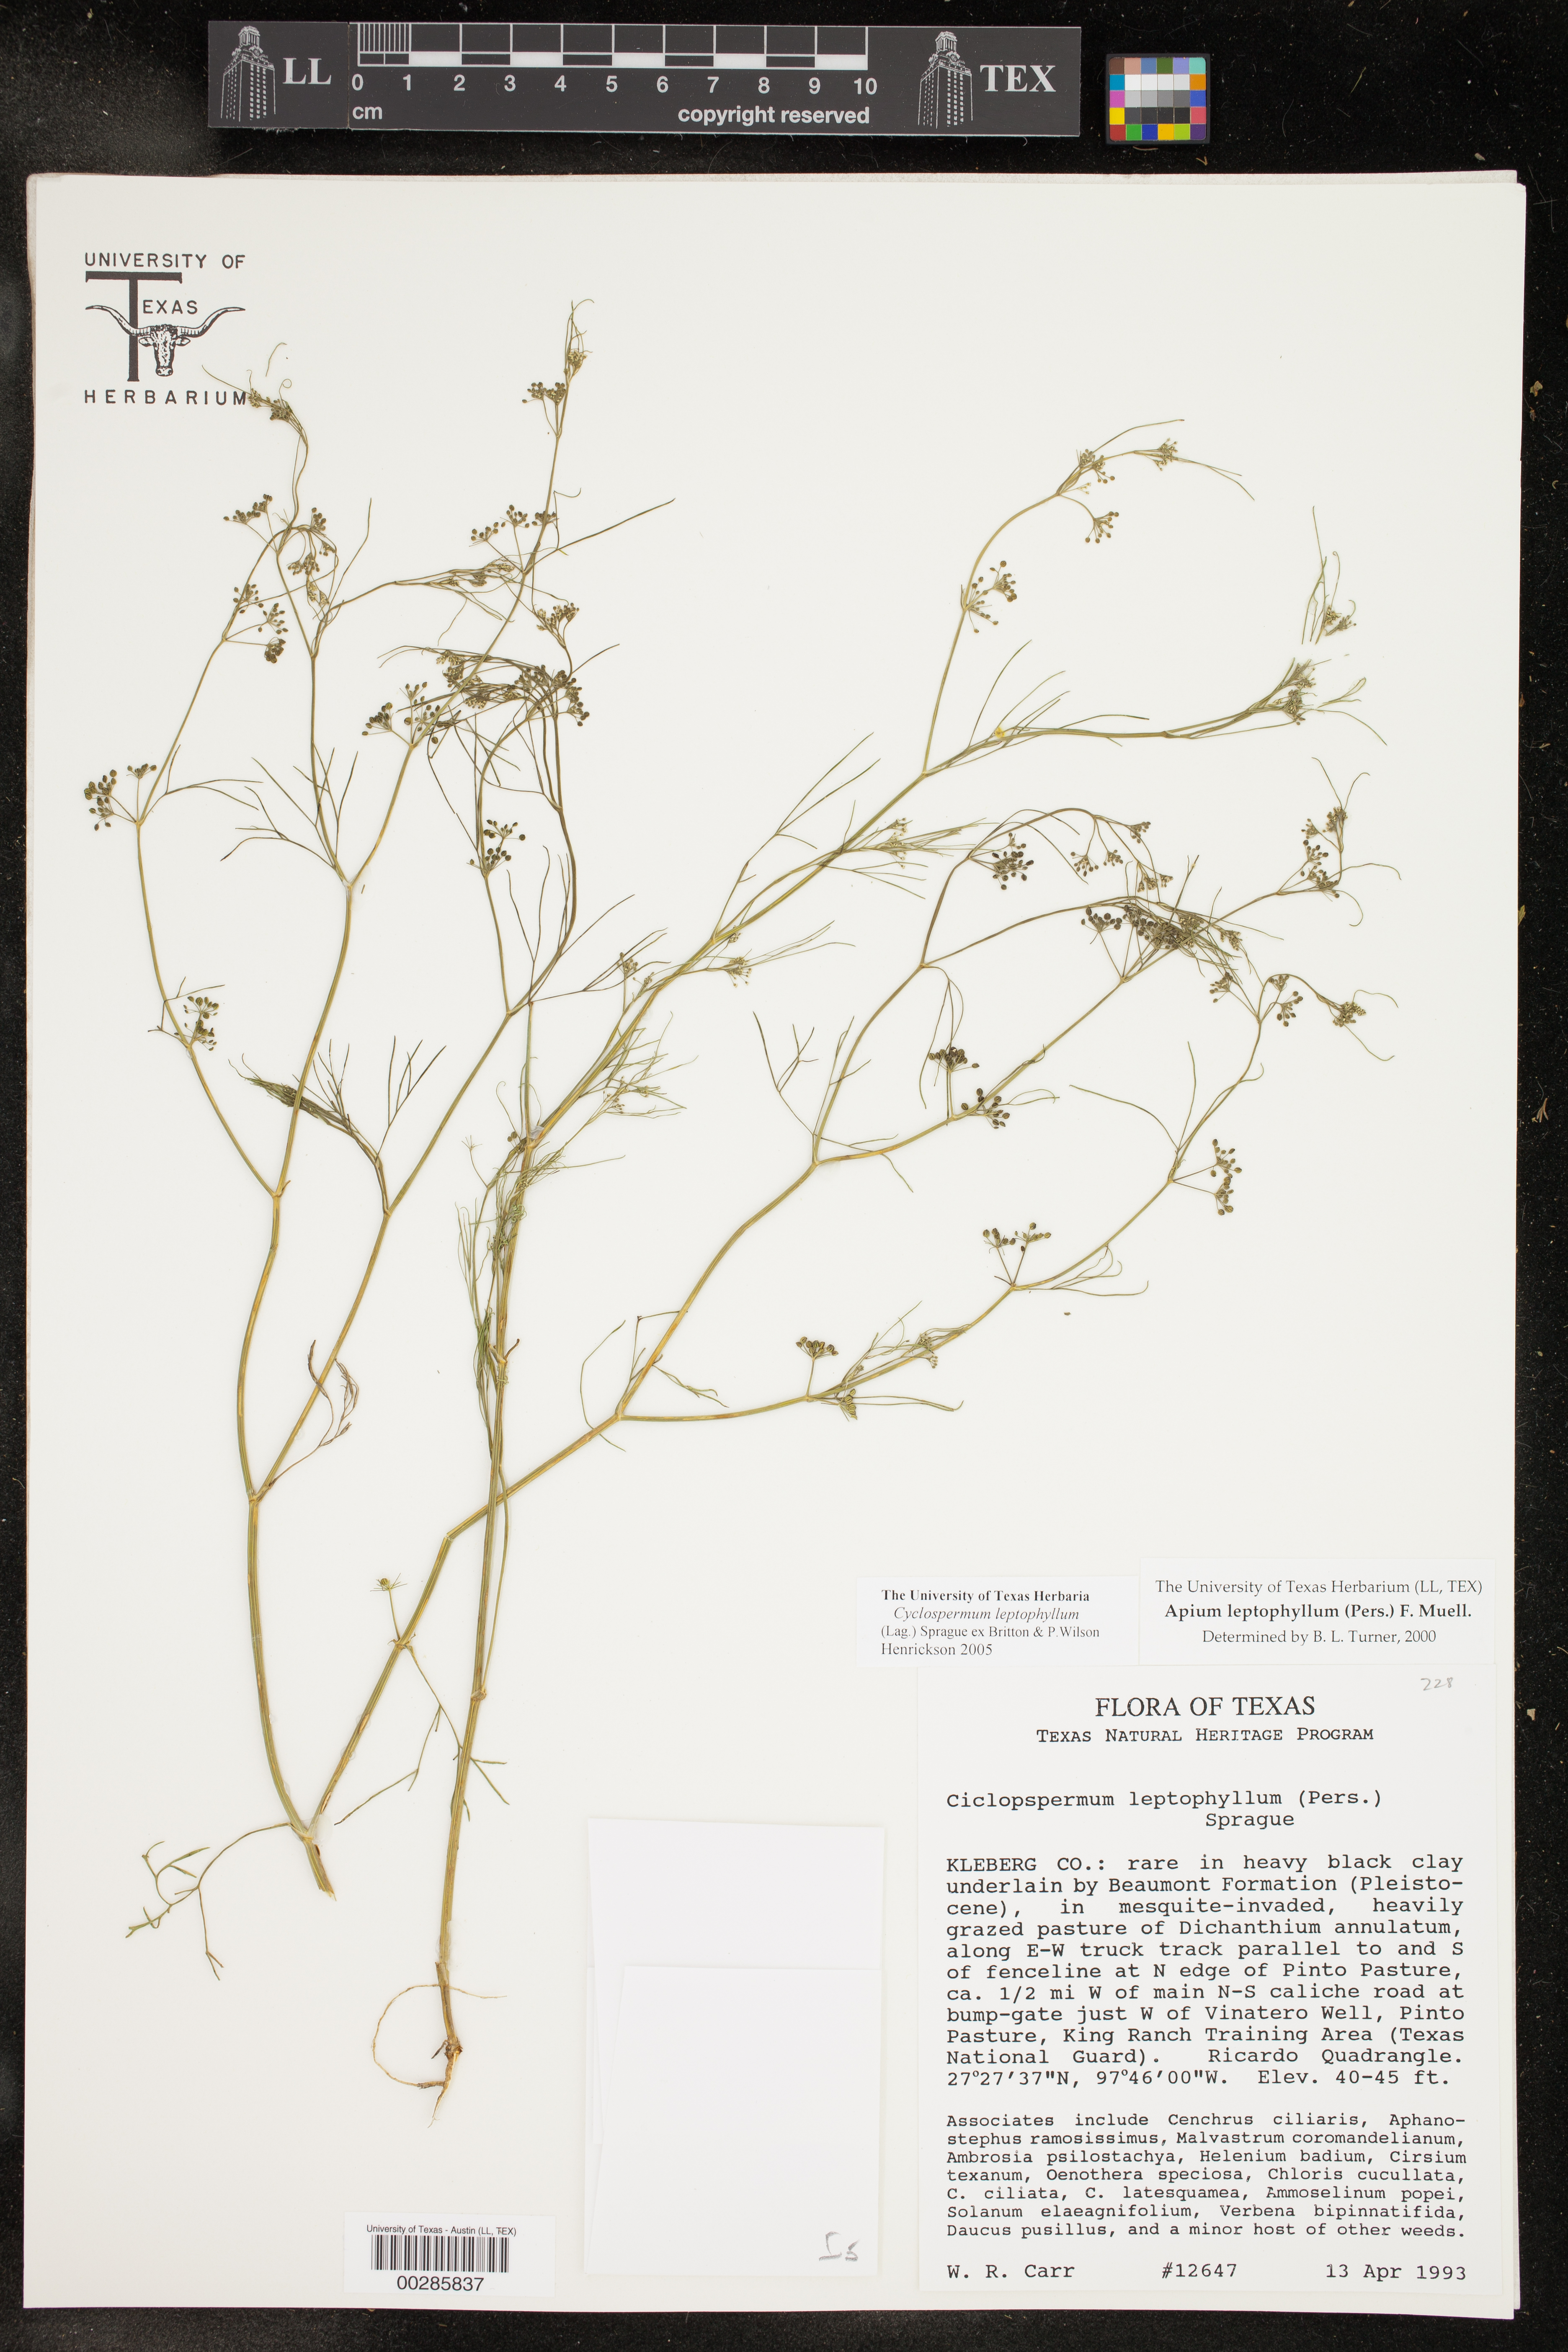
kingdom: Plantae
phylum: Tracheophyta
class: Magnoliopsida
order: Apiales
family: Apiaceae
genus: Cyclospermum
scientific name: Cyclospermum leptophyllum
